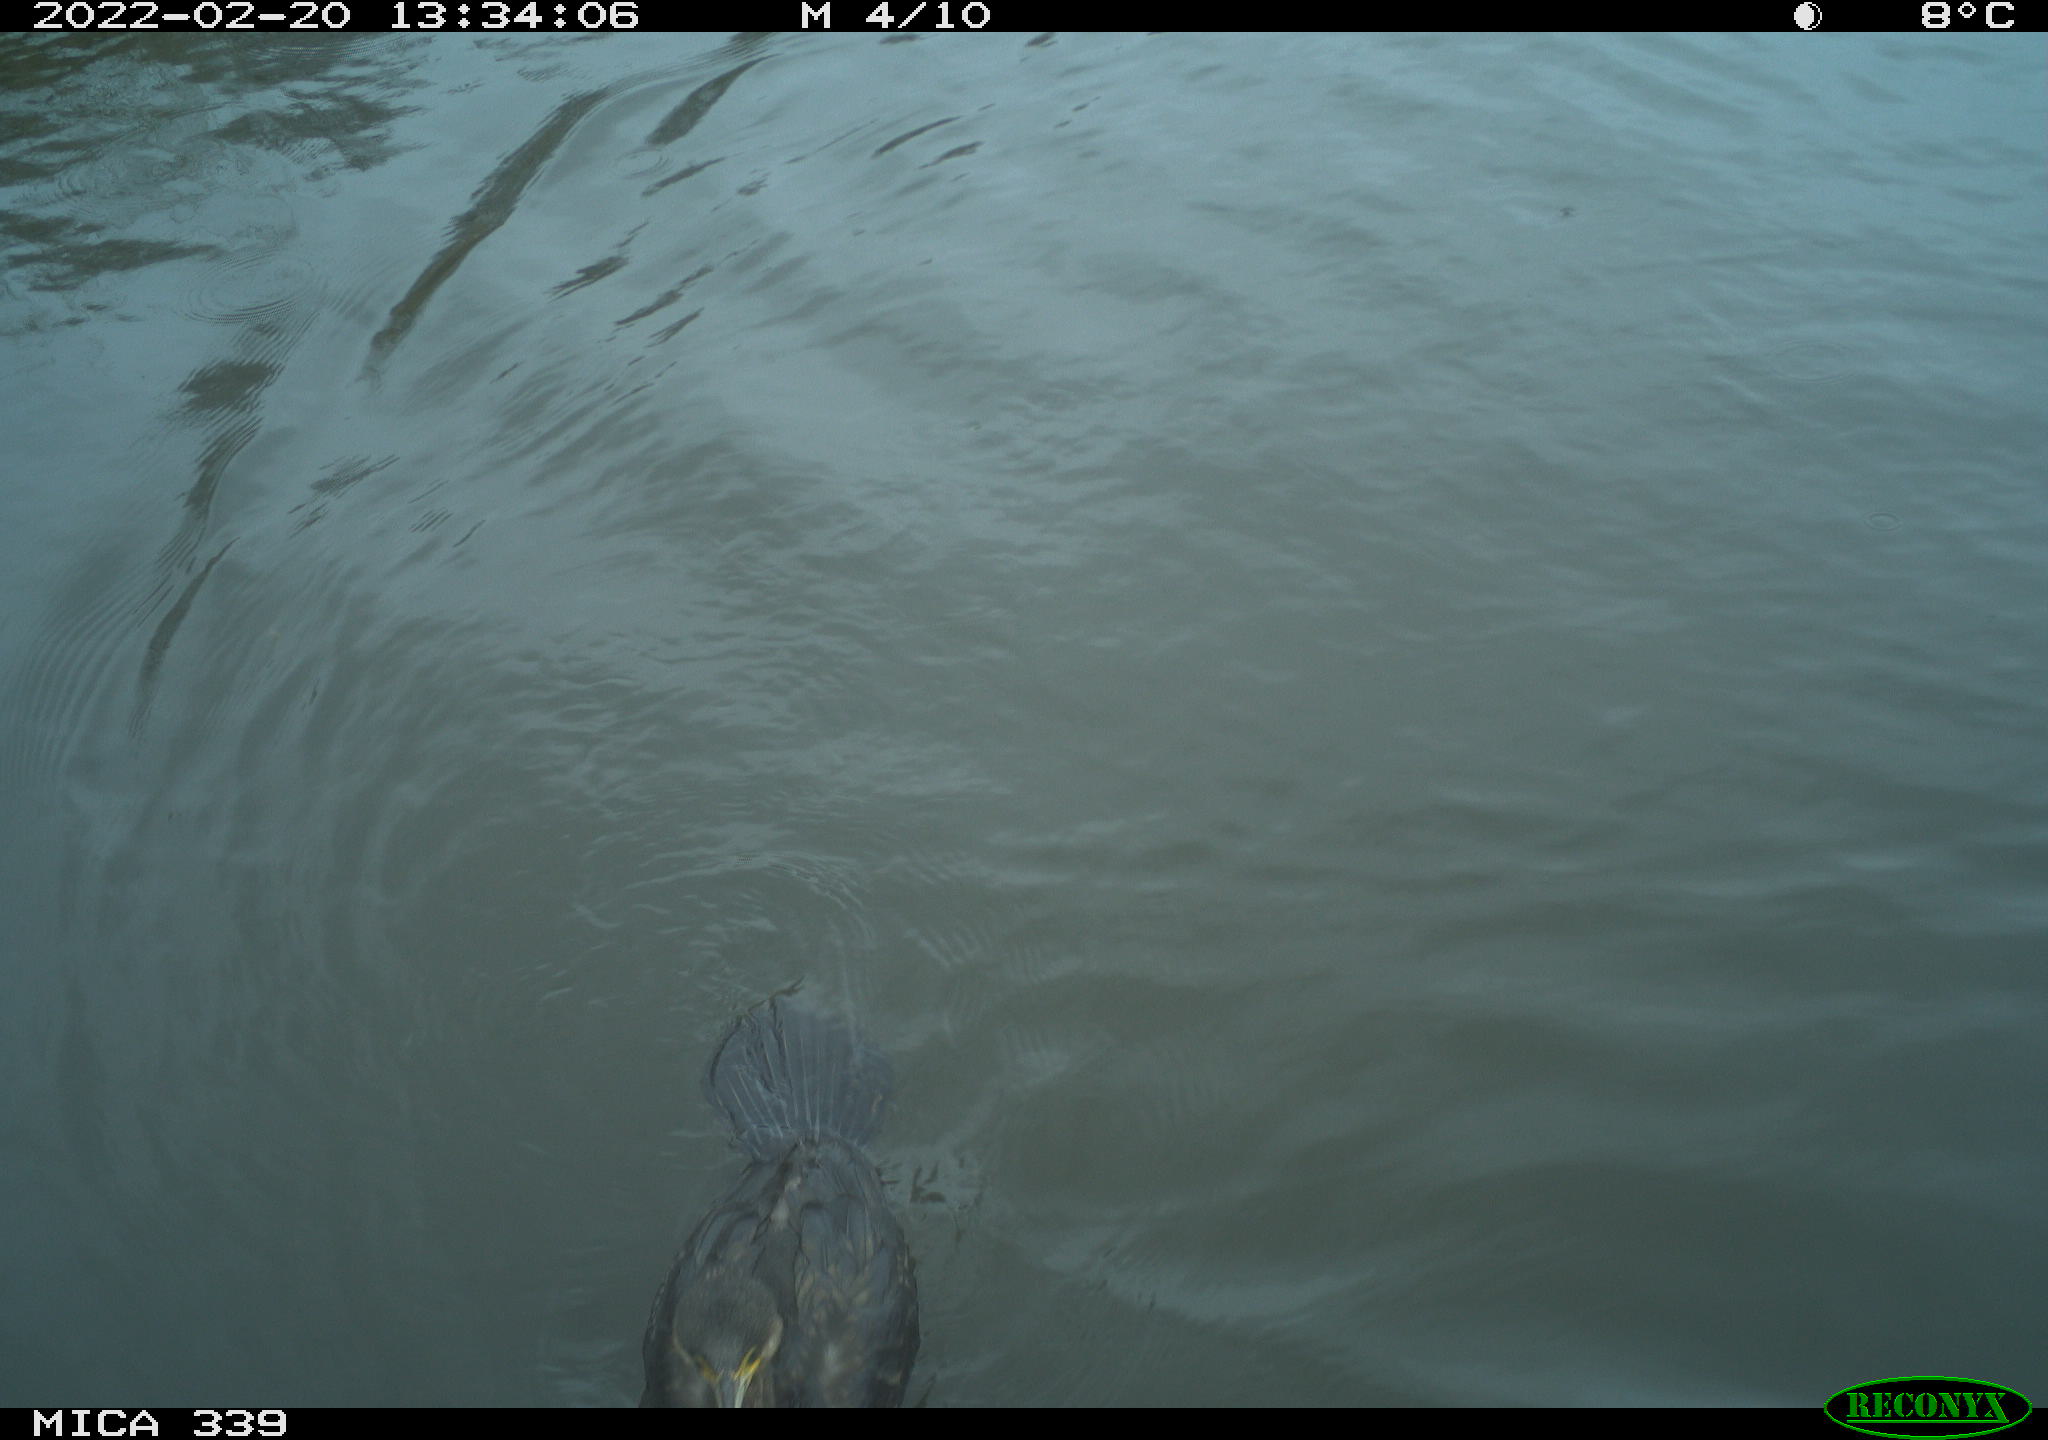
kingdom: Animalia
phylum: Chordata
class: Aves
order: Suliformes
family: Phalacrocoracidae
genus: Phalacrocorax
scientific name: Phalacrocorax carbo
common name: Great cormorant
